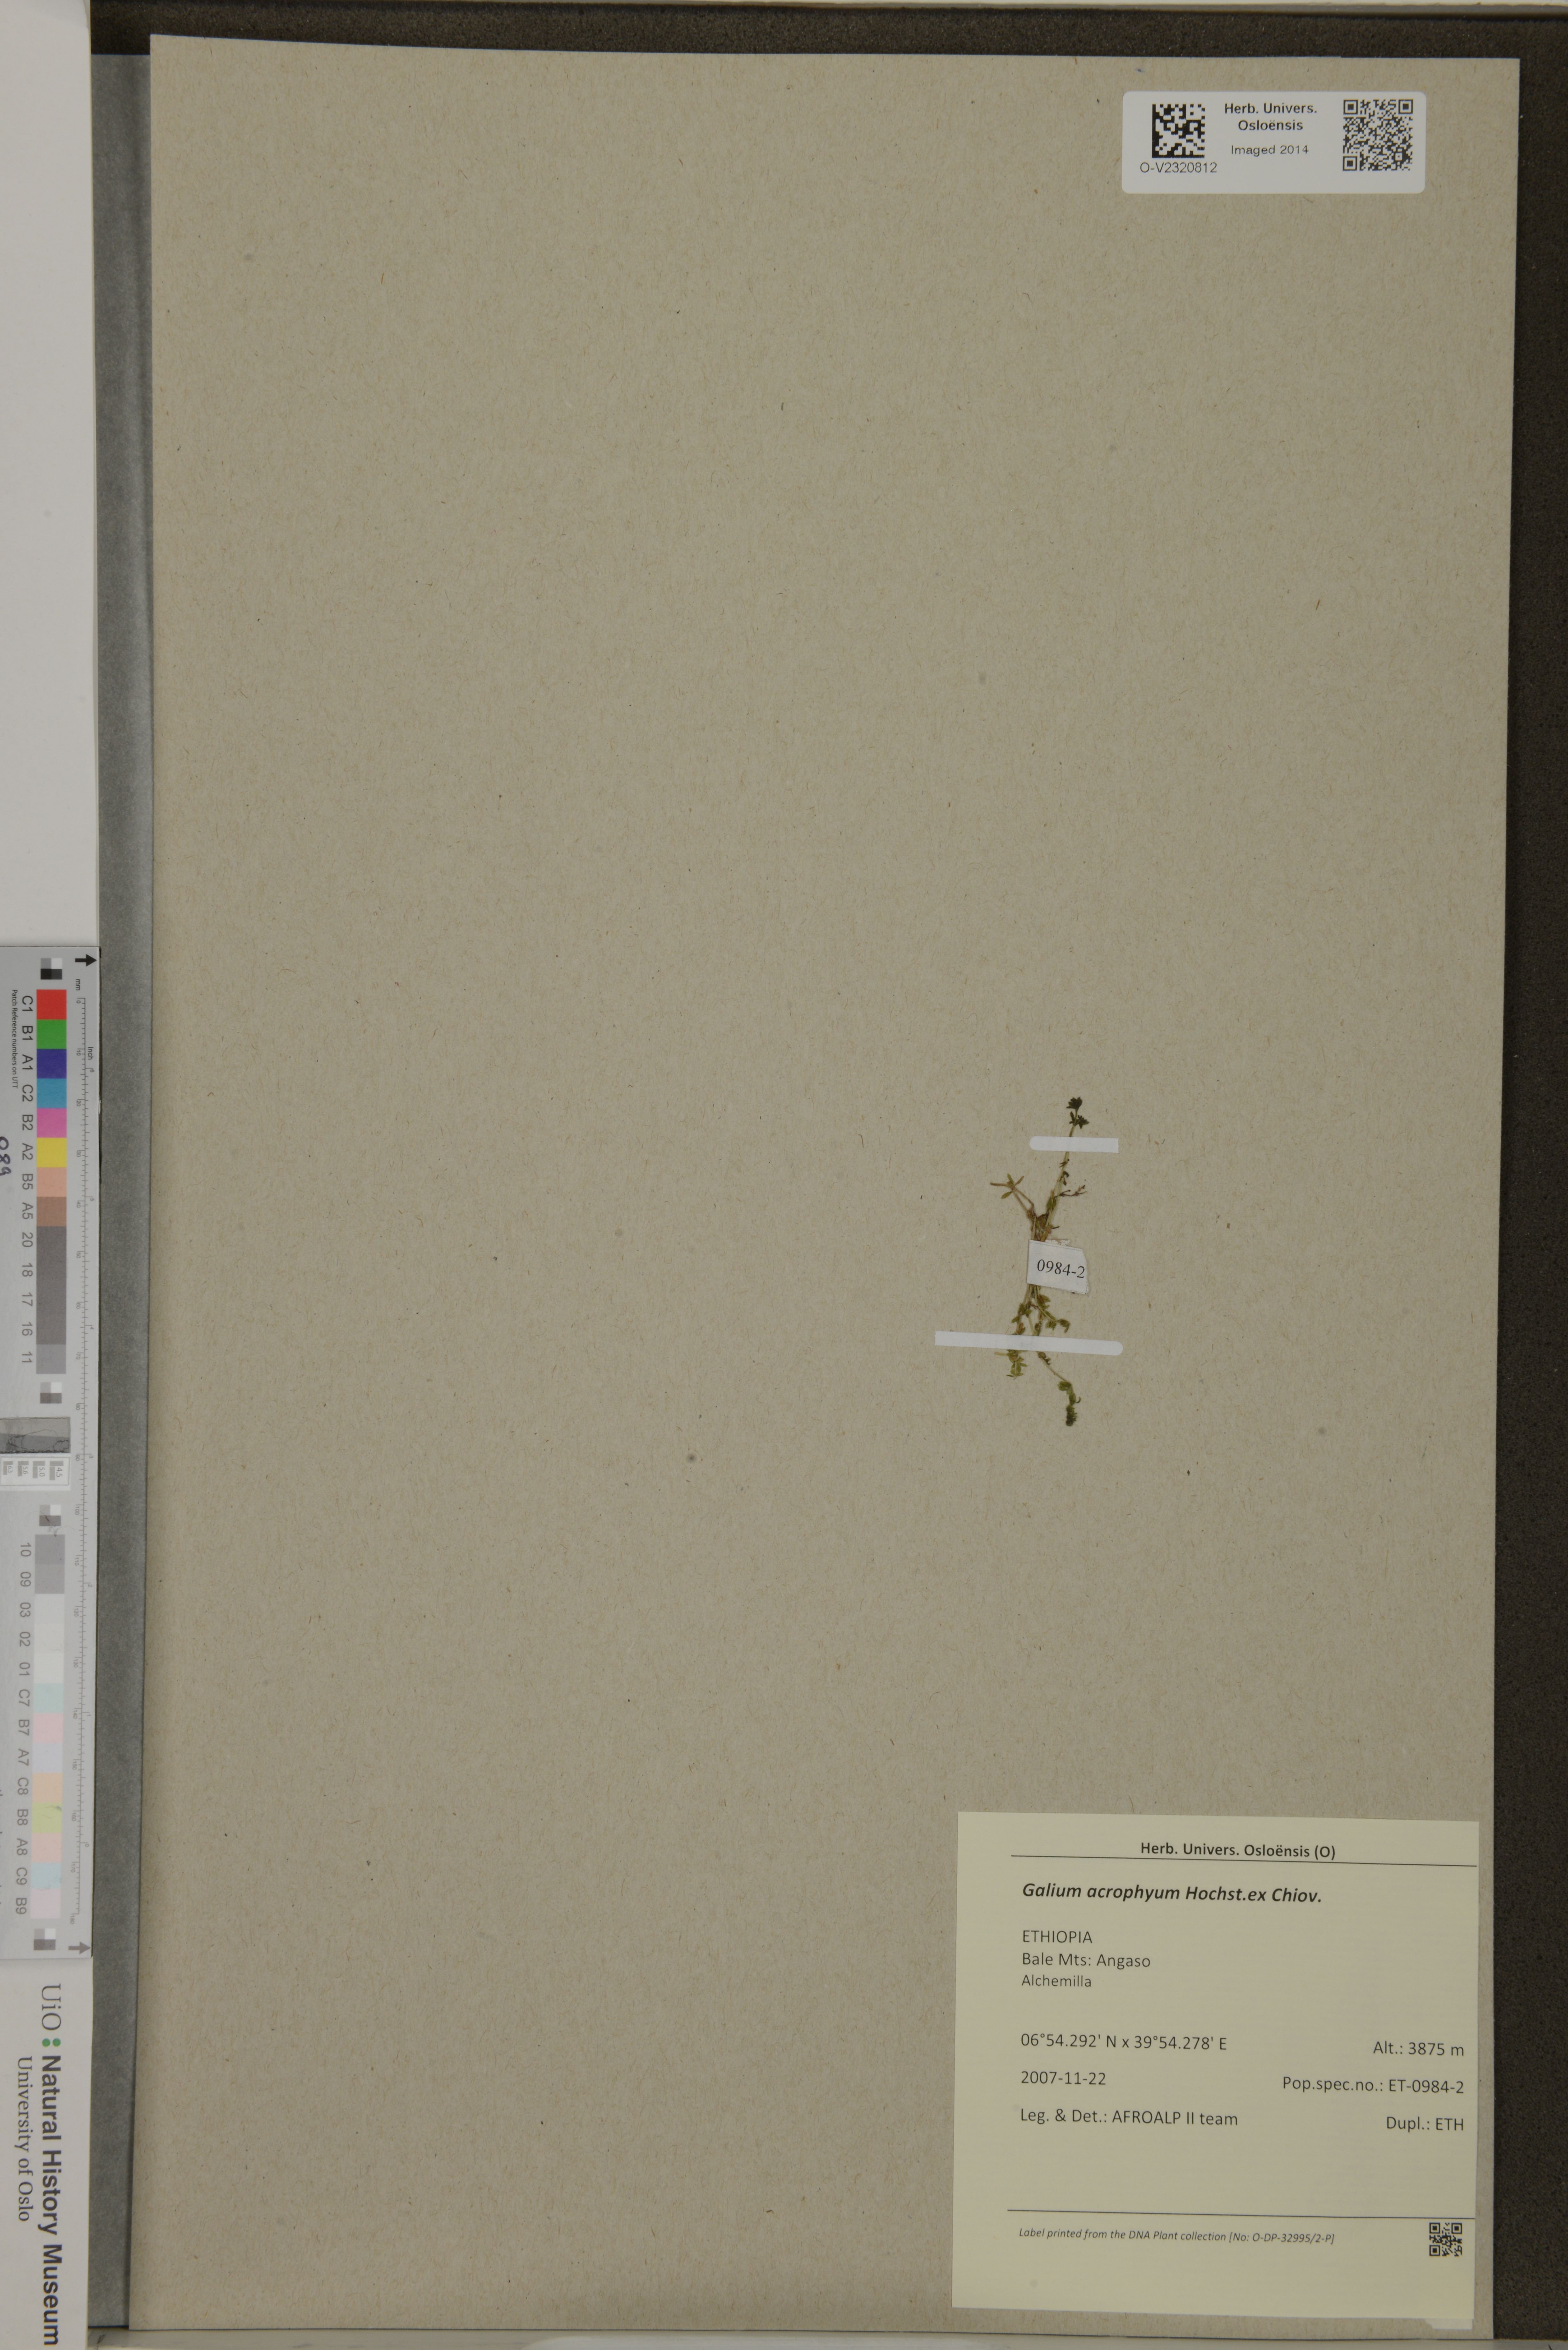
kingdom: Plantae
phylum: Tracheophyta
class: Magnoliopsida
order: Gentianales
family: Rubiaceae
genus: Galium
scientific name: Galium acrophyum
